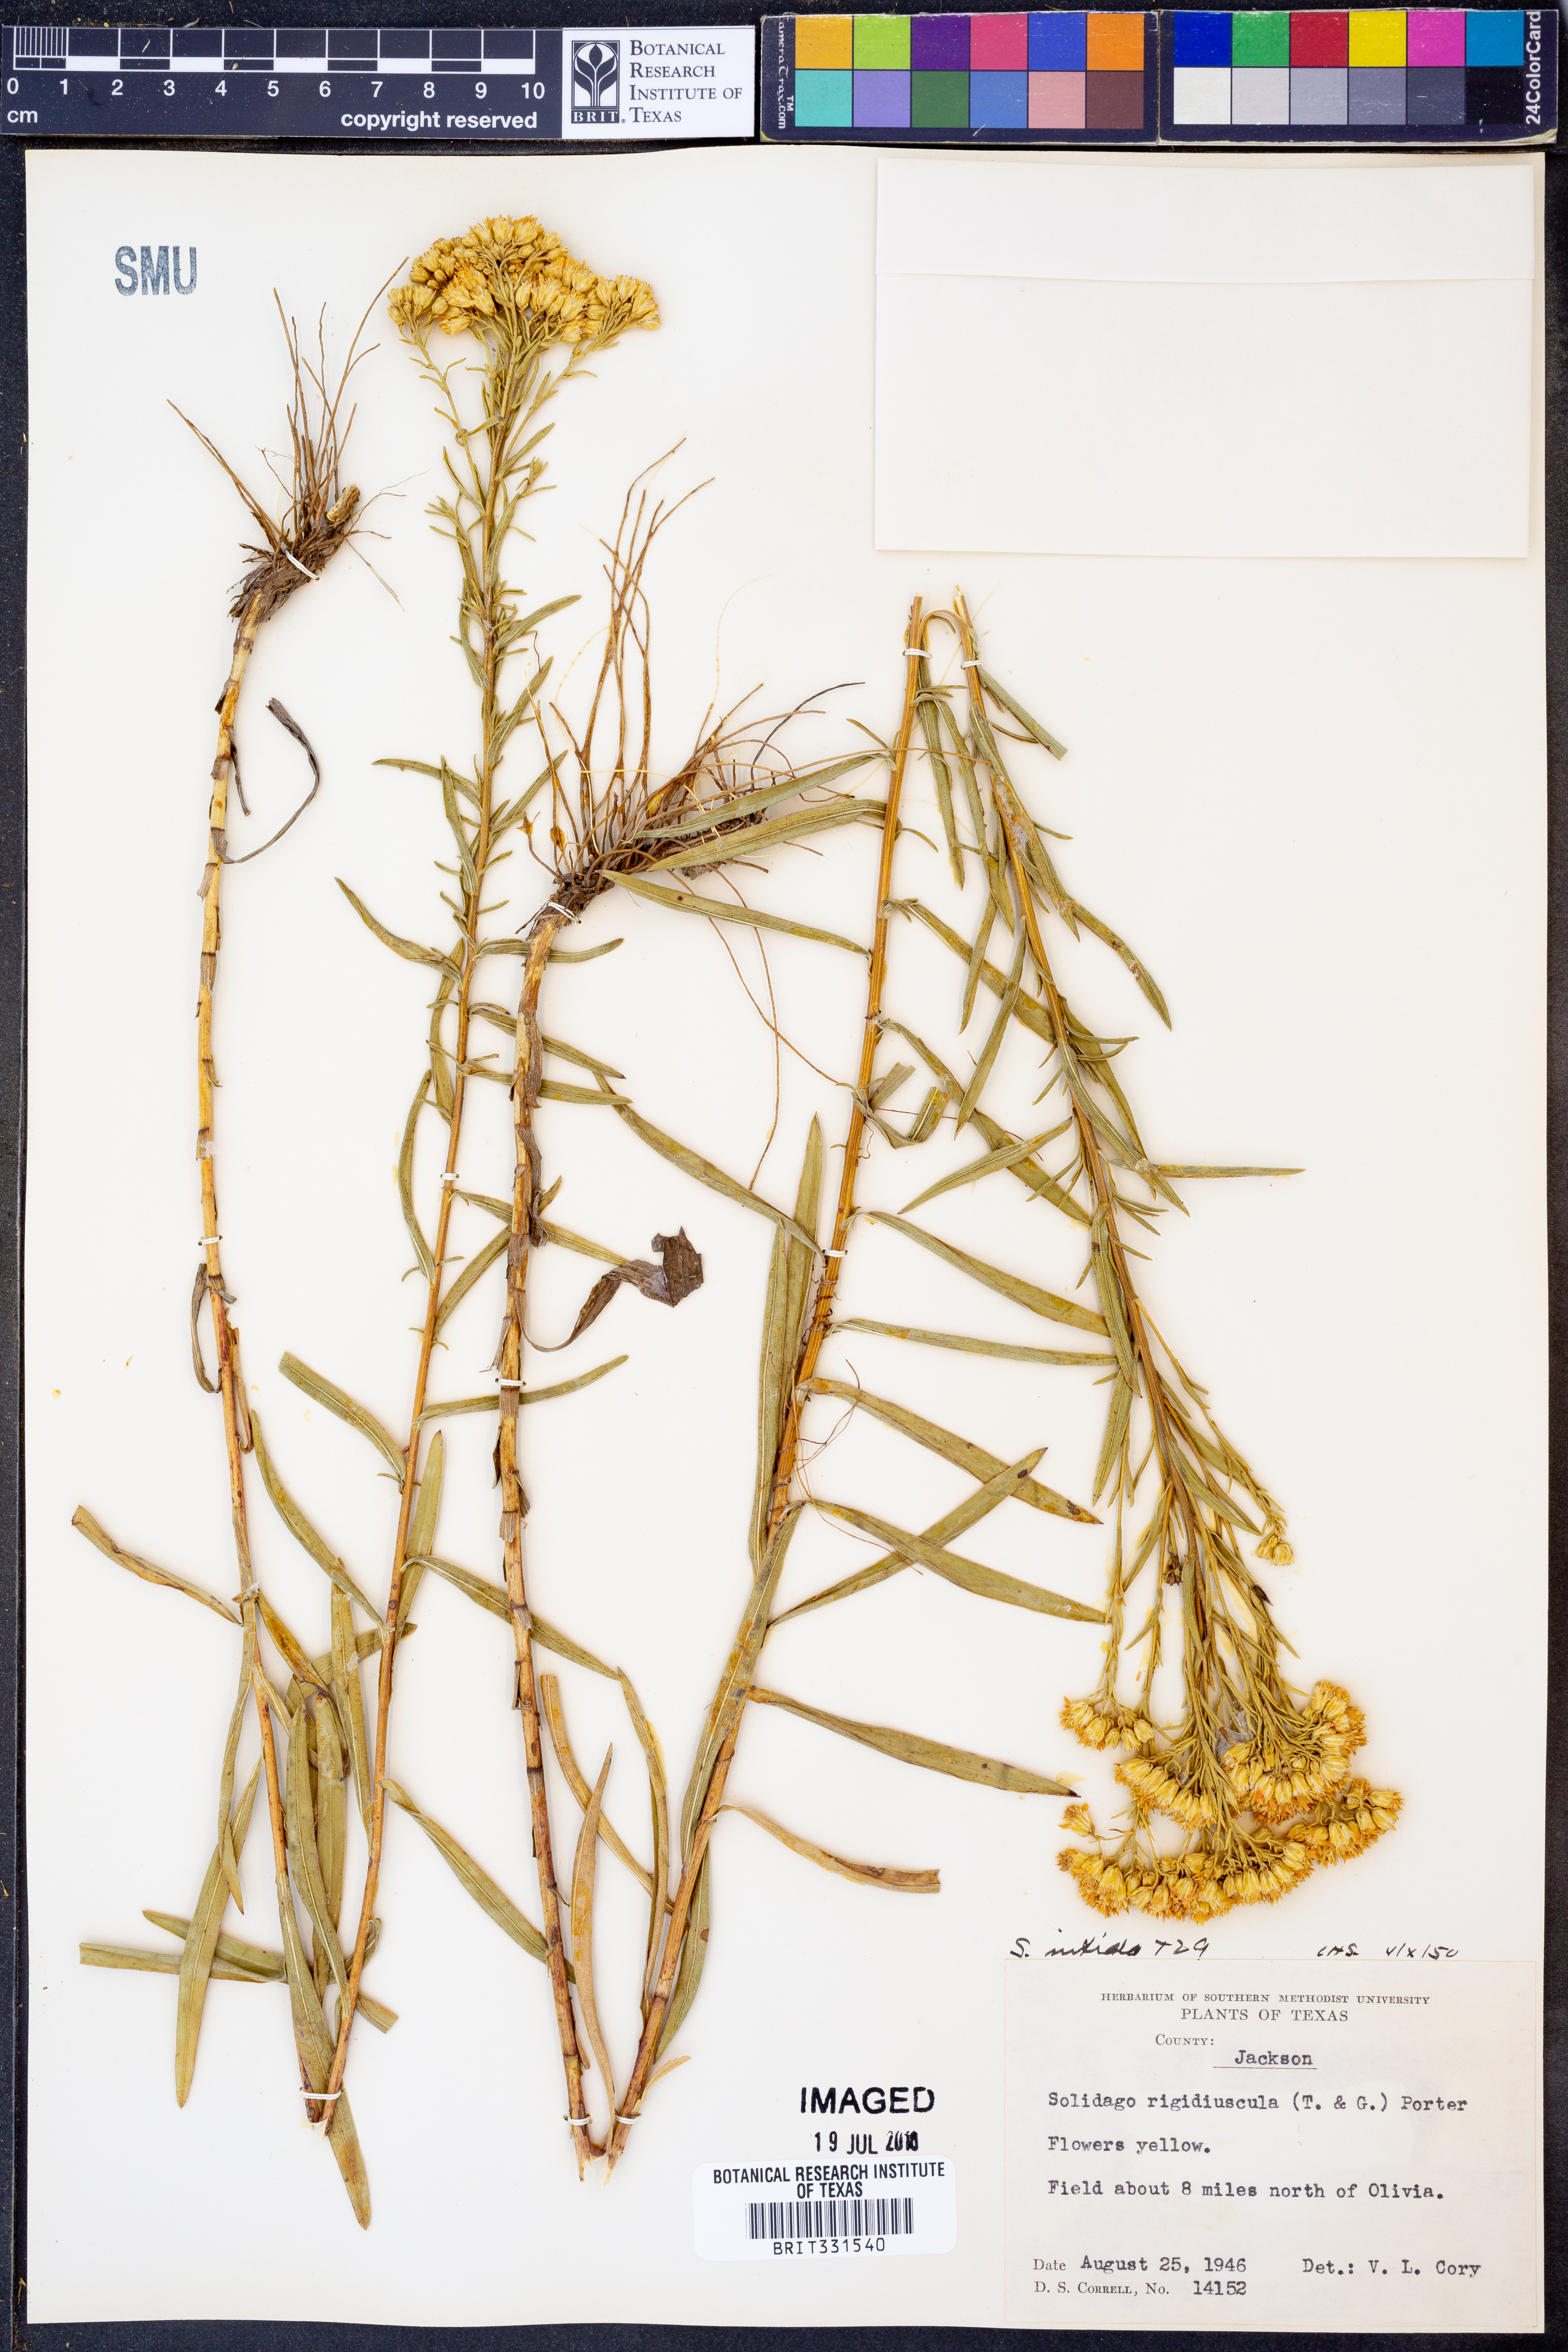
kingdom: Plantae
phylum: Tracheophyta
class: Magnoliopsida
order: Asterales
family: Asteraceae
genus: Solidago
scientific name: Solidago rigidiuscula
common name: Stiff-leaved showy goldenrod
